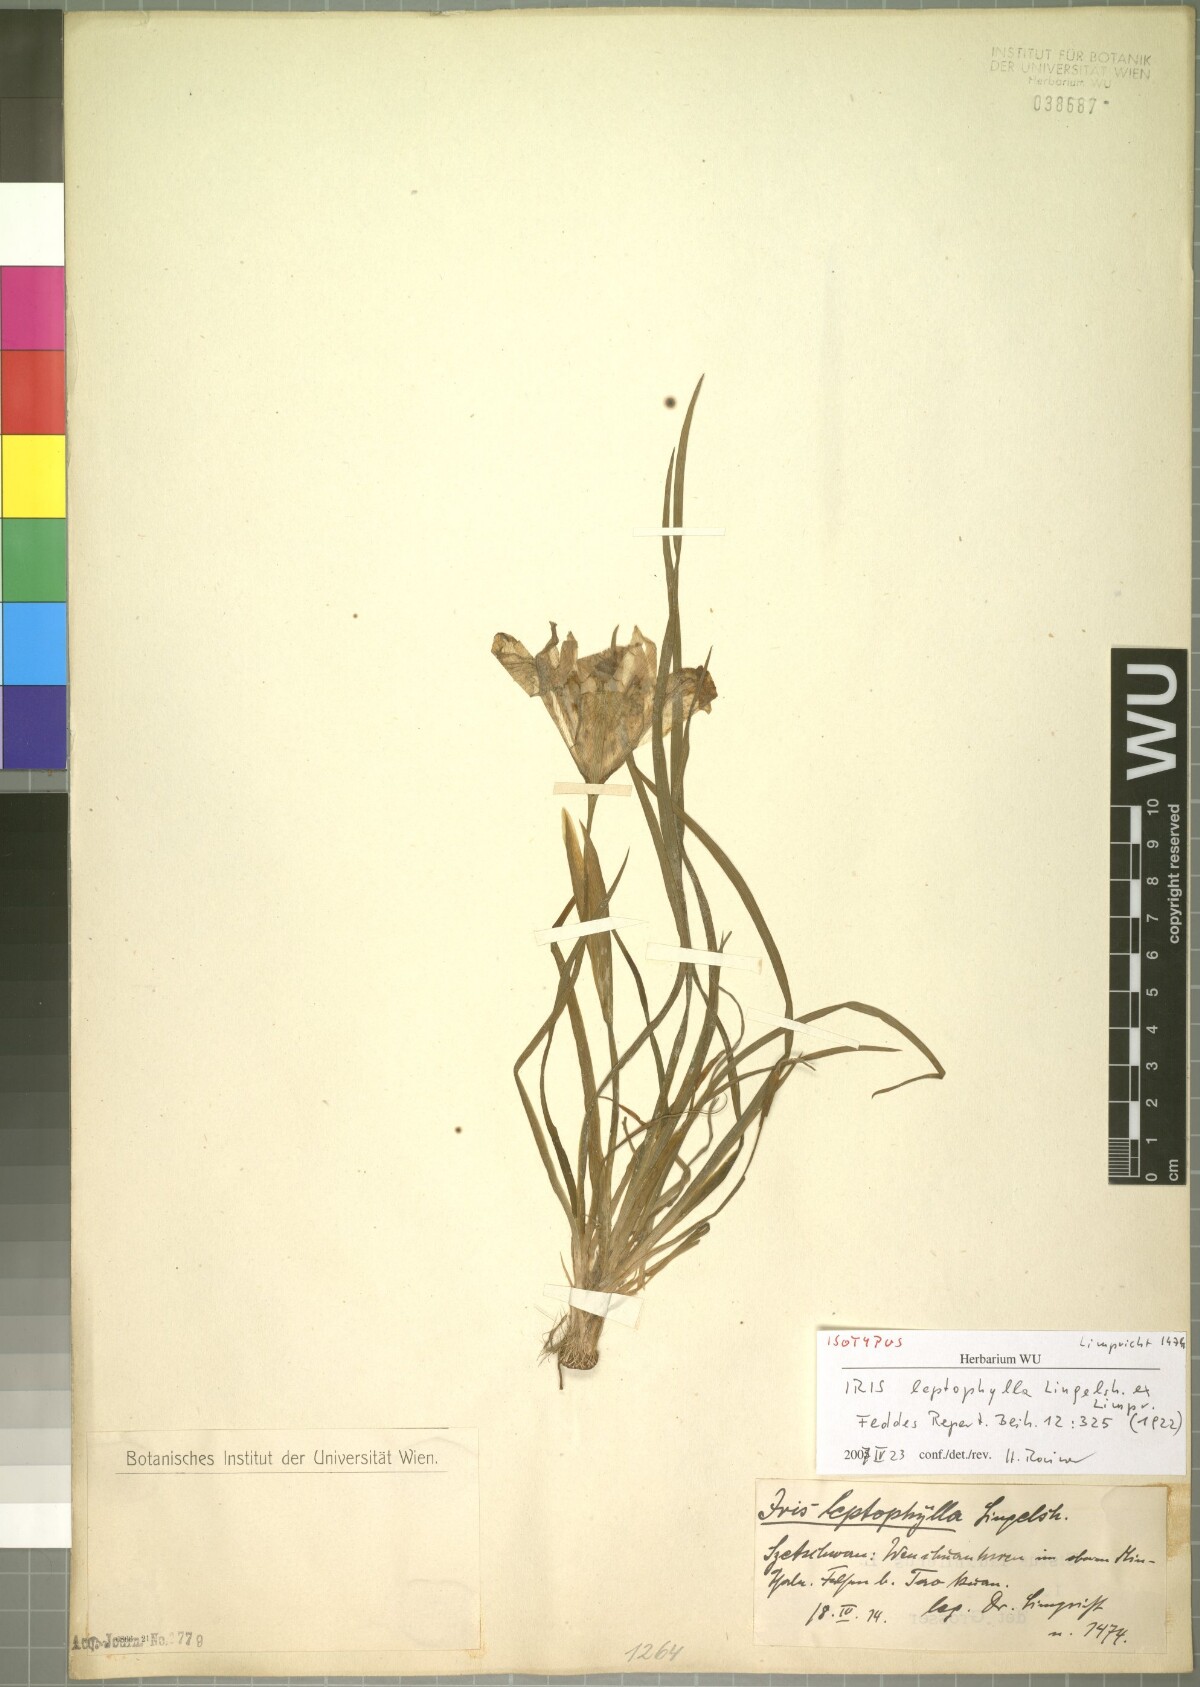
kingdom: Plantae
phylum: Tracheophyta
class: Liliopsida
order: Asparagales
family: Iridaceae
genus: Iris
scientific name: Iris leptophylla
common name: Thin-leaf iris
